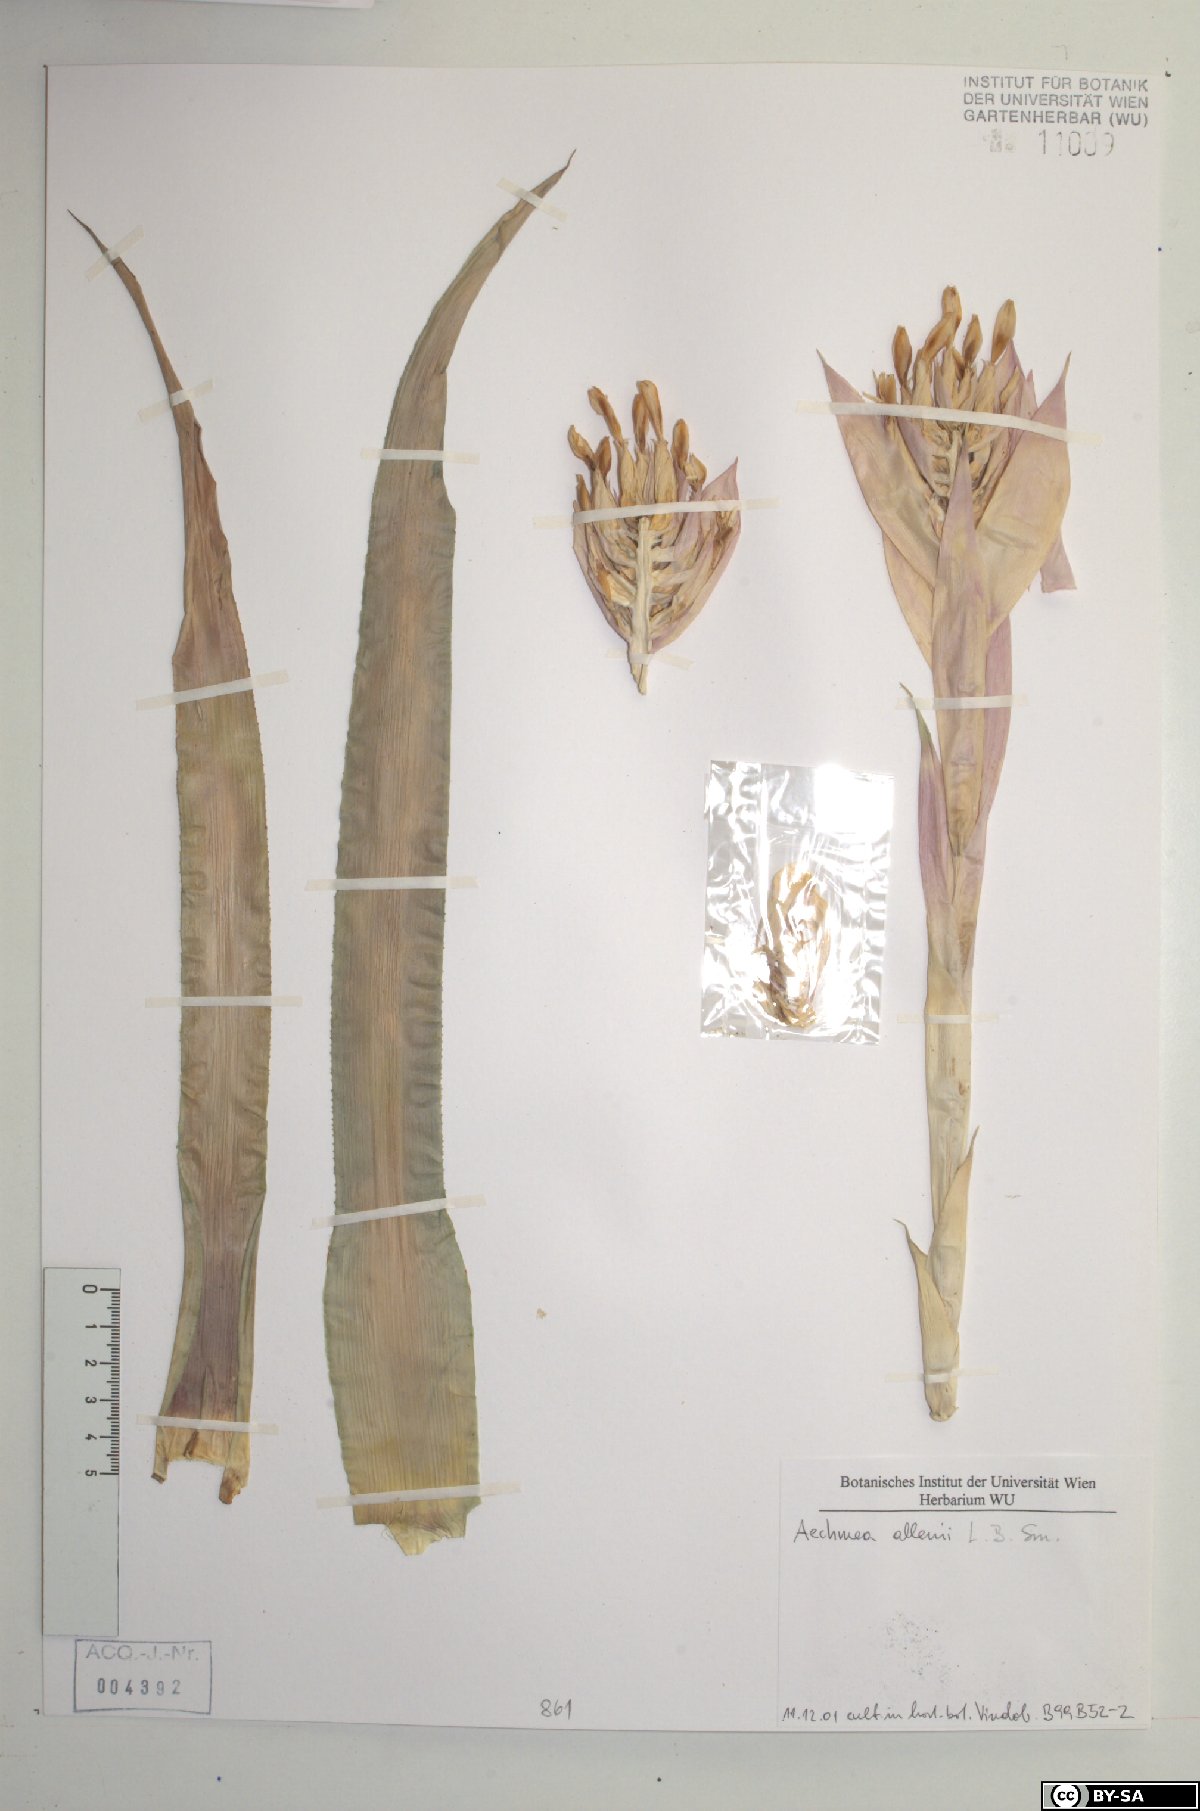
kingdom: Plantae
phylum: Tracheophyta
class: Liliopsida
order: Poales
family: Bromeliaceae
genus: Aechmea
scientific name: Aechmea
